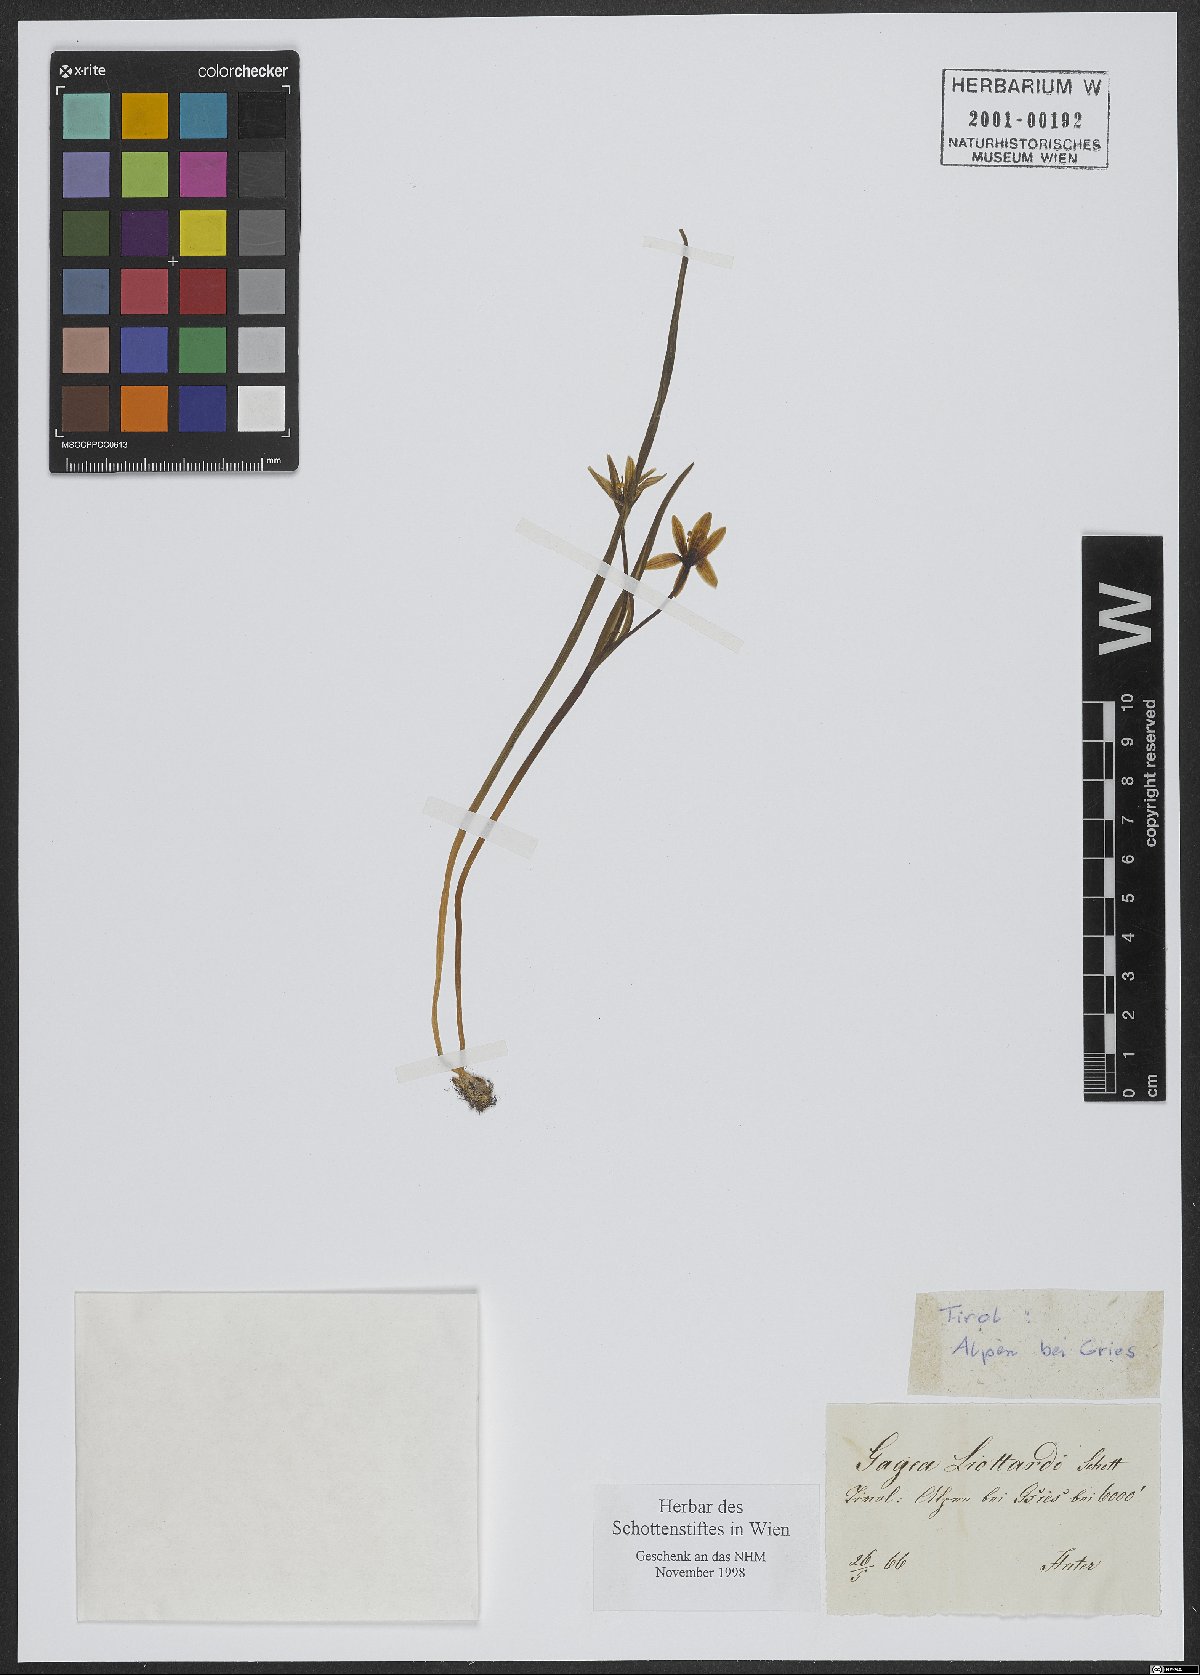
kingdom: Plantae
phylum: Tracheophyta
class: Liliopsida
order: Liliales
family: Liliaceae
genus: Gagea
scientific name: Gagea fragifera
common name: Lily
